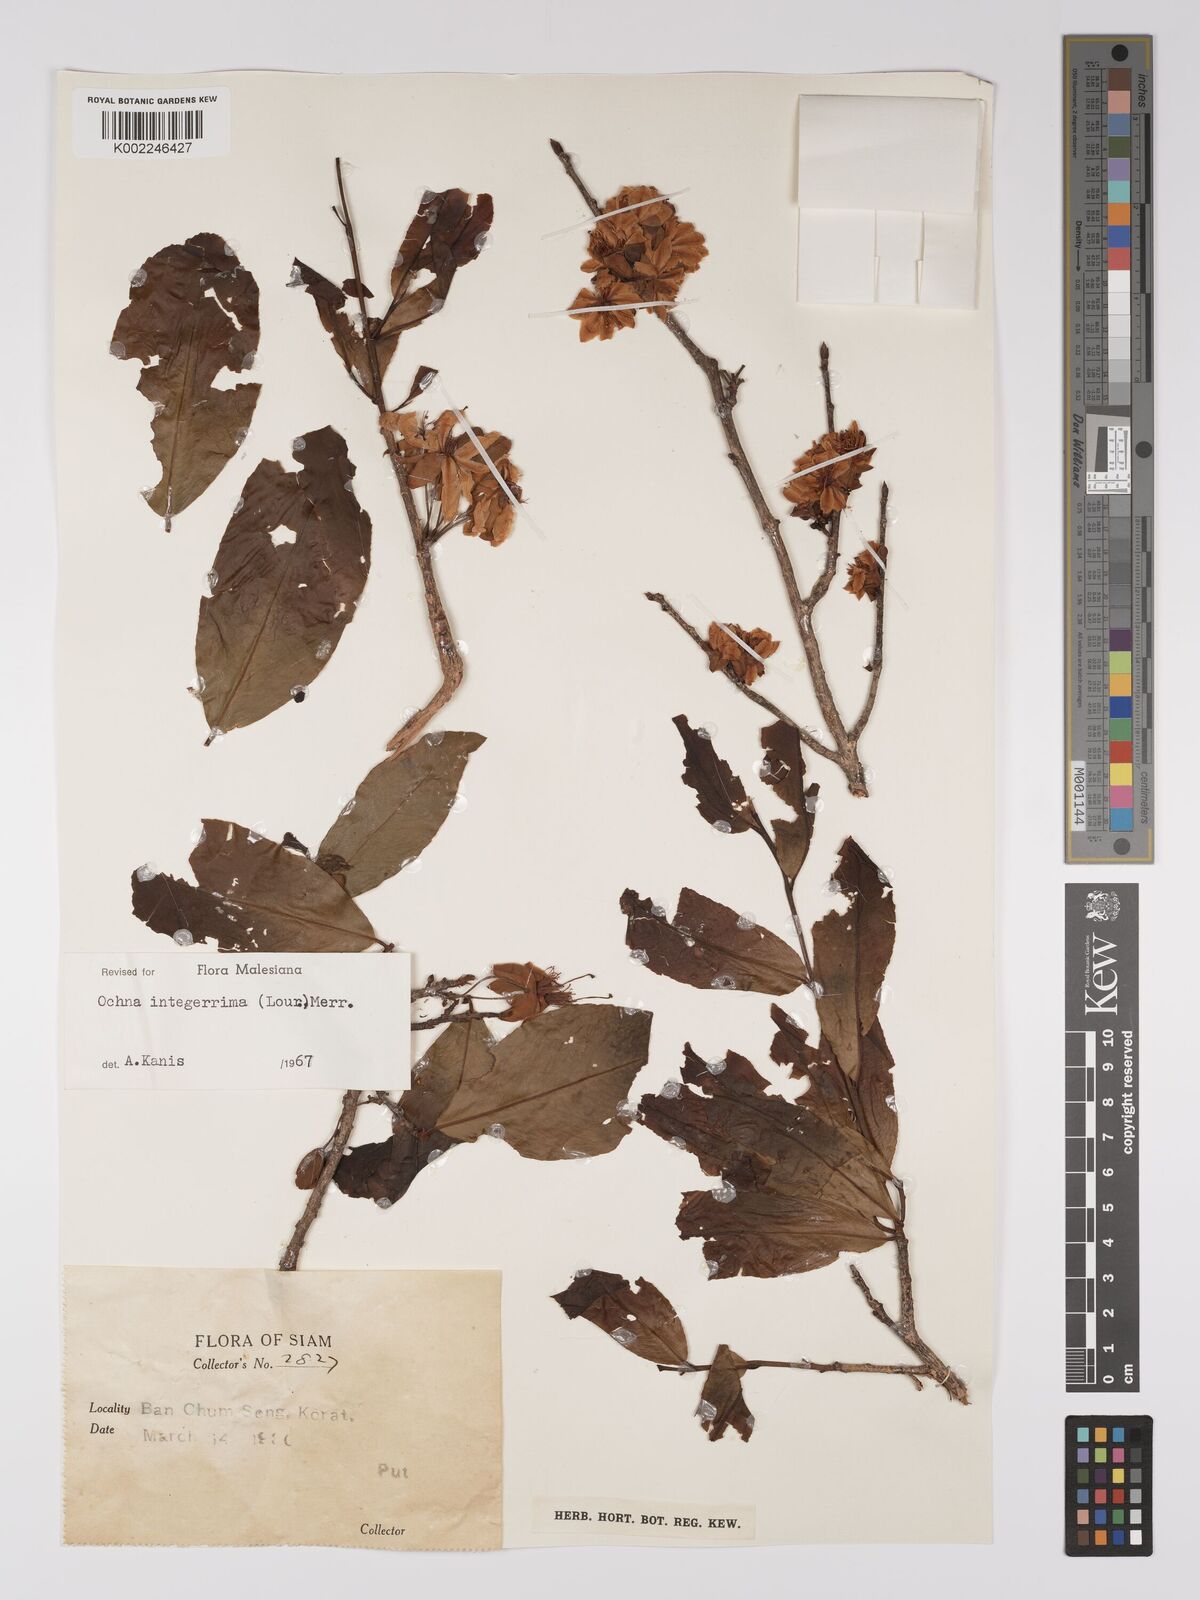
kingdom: Plantae
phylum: Tracheophyta
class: Magnoliopsida
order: Malpighiales
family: Ochnaceae
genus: Ochna
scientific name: Ochna integerrima
